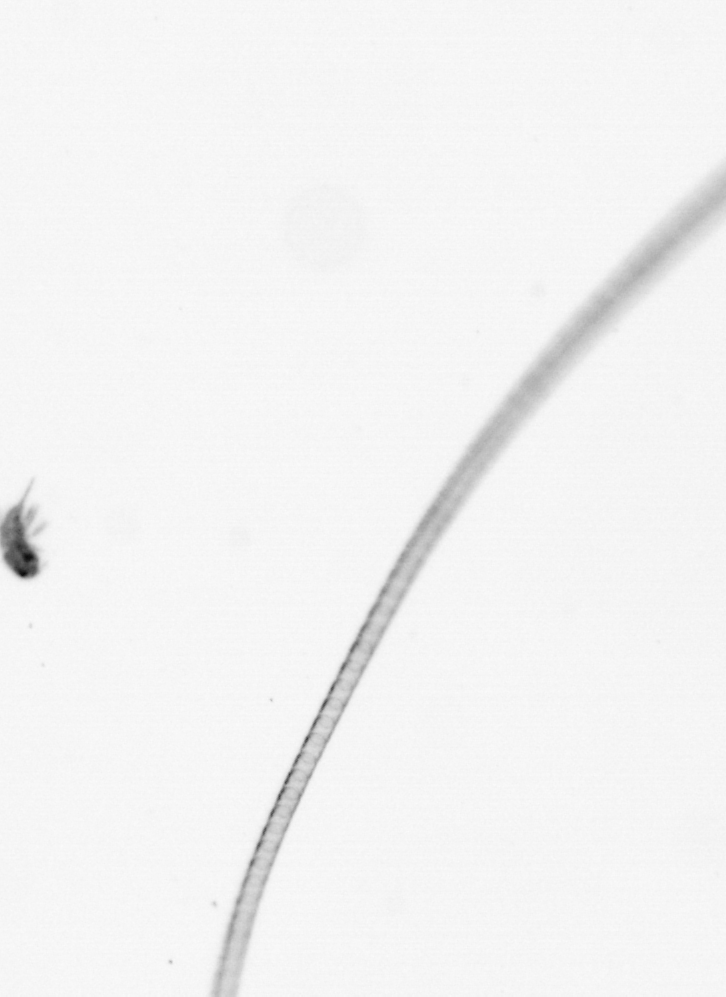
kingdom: Chromista
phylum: Ochrophyta
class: Bacillariophyceae
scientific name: Bacillariophyceae
